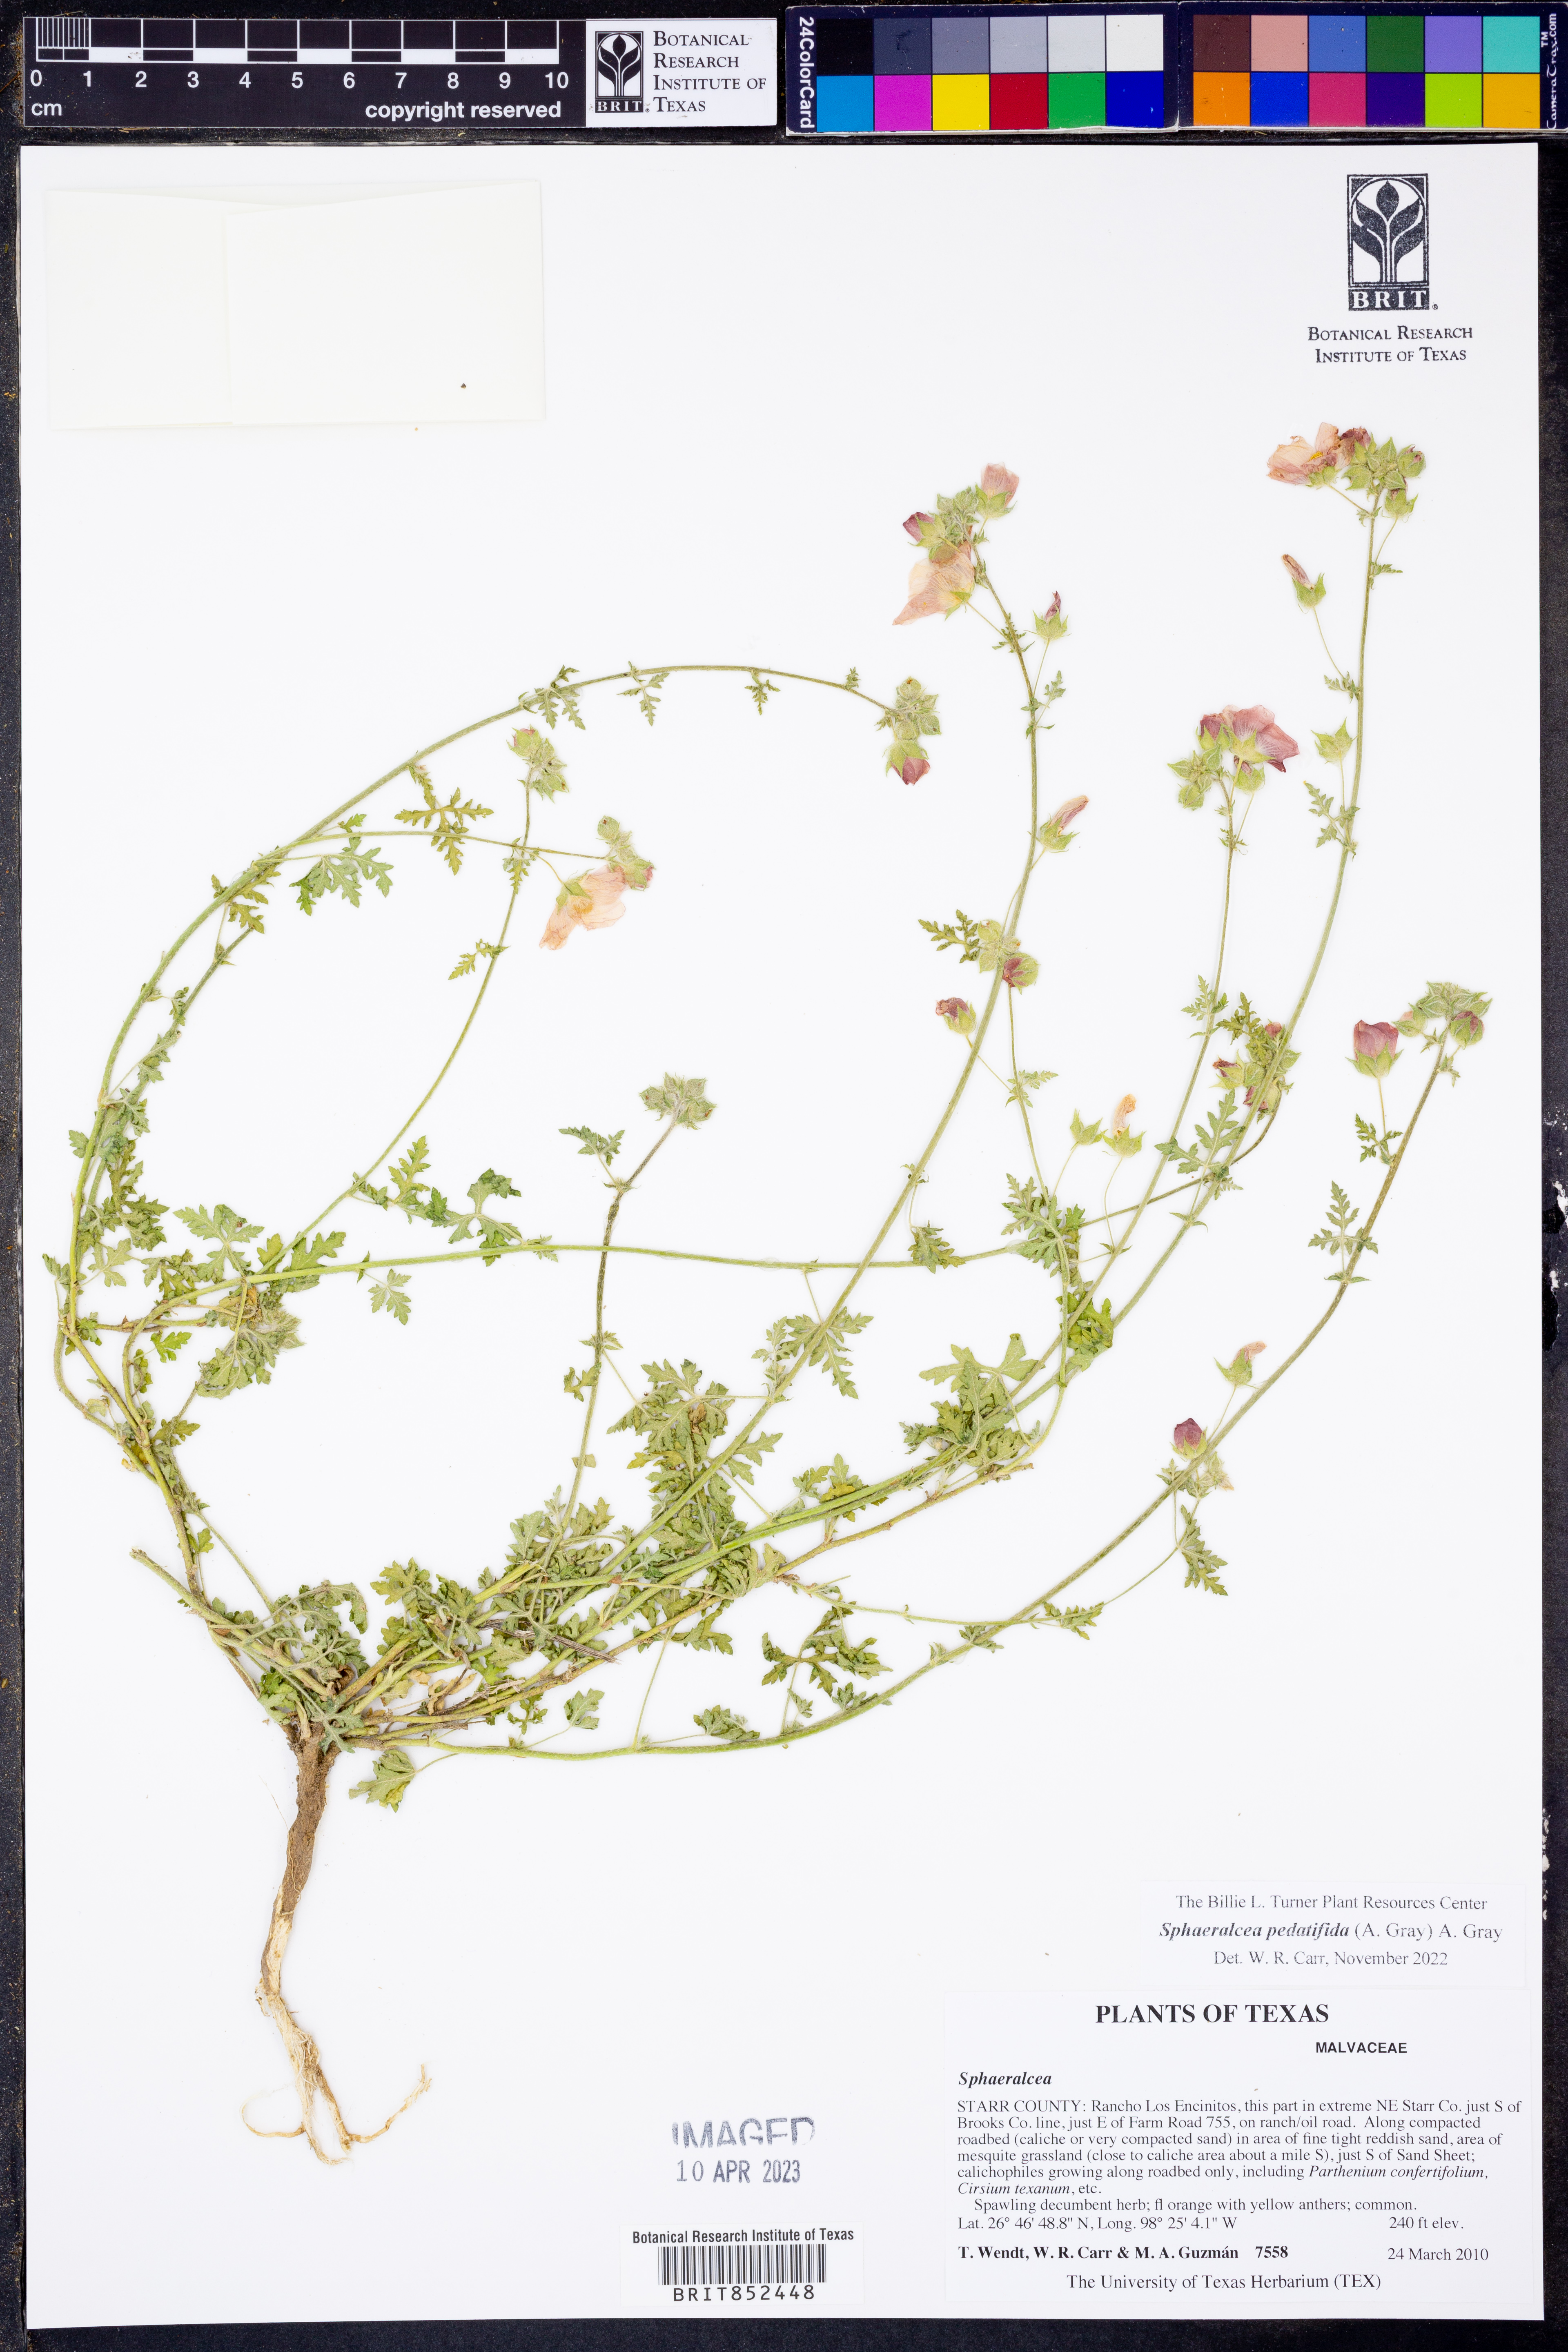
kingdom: Plantae
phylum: Tracheophyta
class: Magnoliopsida
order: Malvales
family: Malvaceae
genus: Sphaeralcea
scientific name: Sphaeralcea pedatifida
